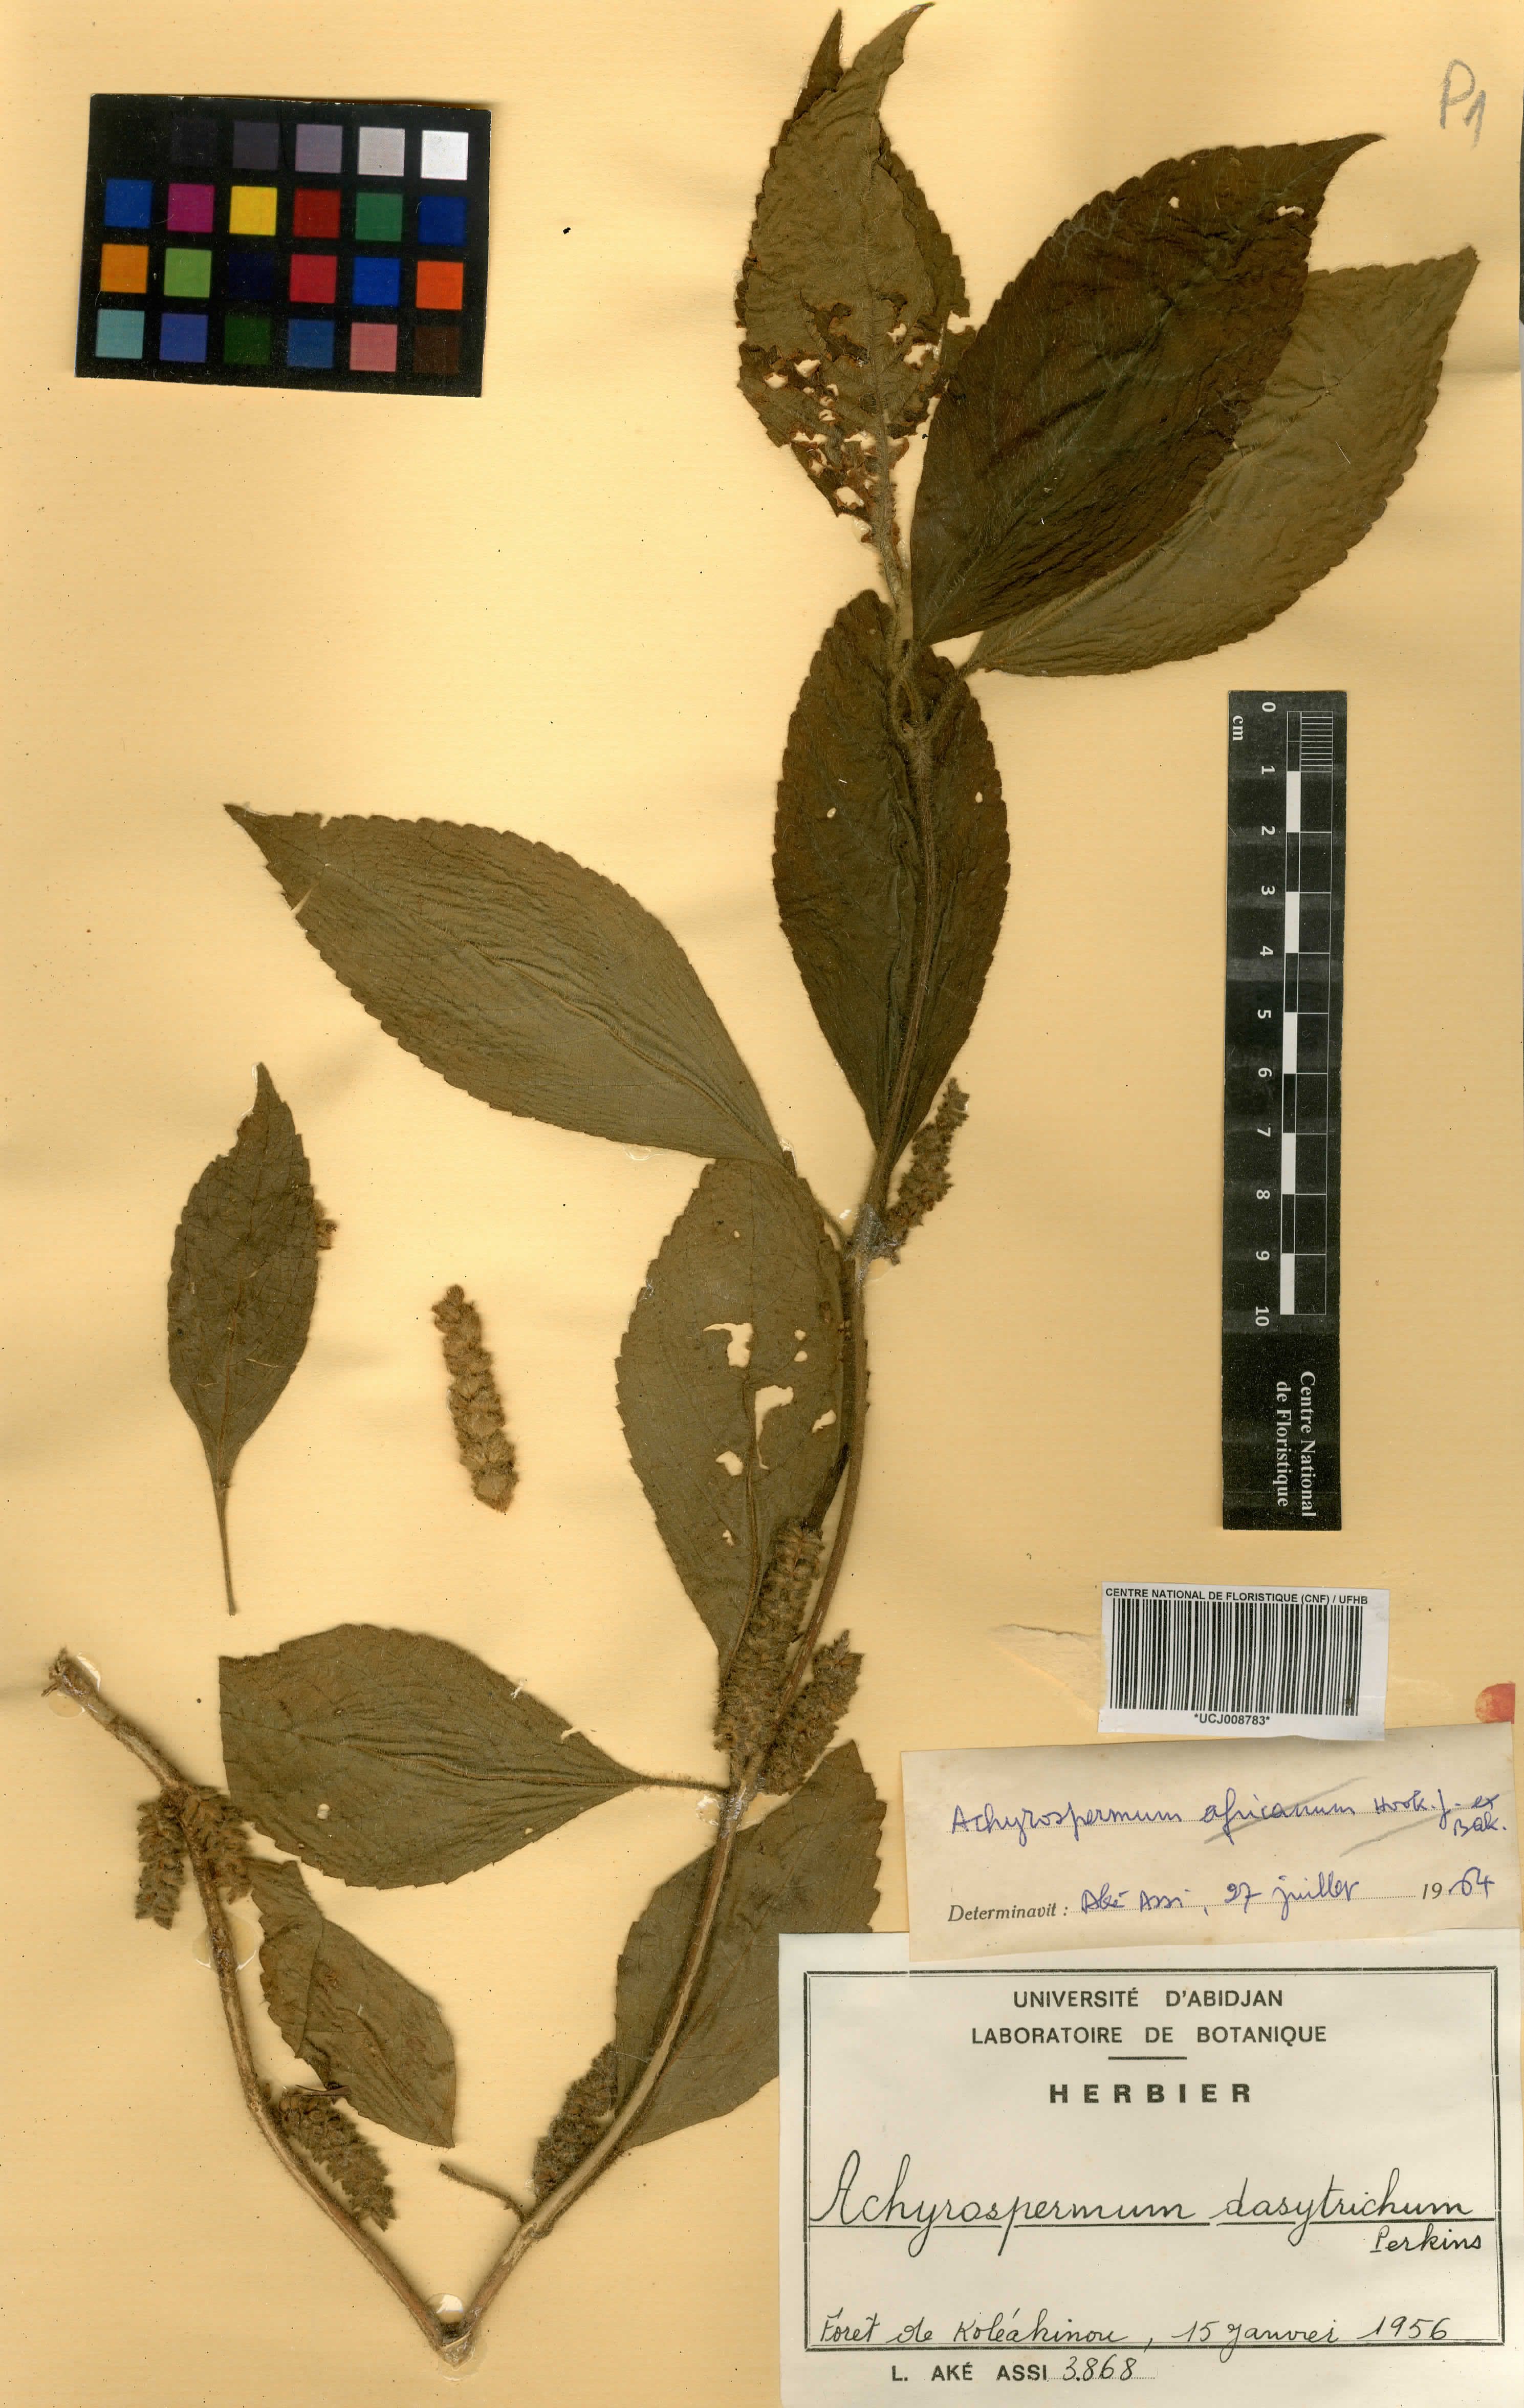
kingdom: Plantae
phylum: Tracheophyta
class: Magnoliopsida
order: Lamiales
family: Lamiaceae
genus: Achyrospermum
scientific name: Achyrospermum dasytrichum
